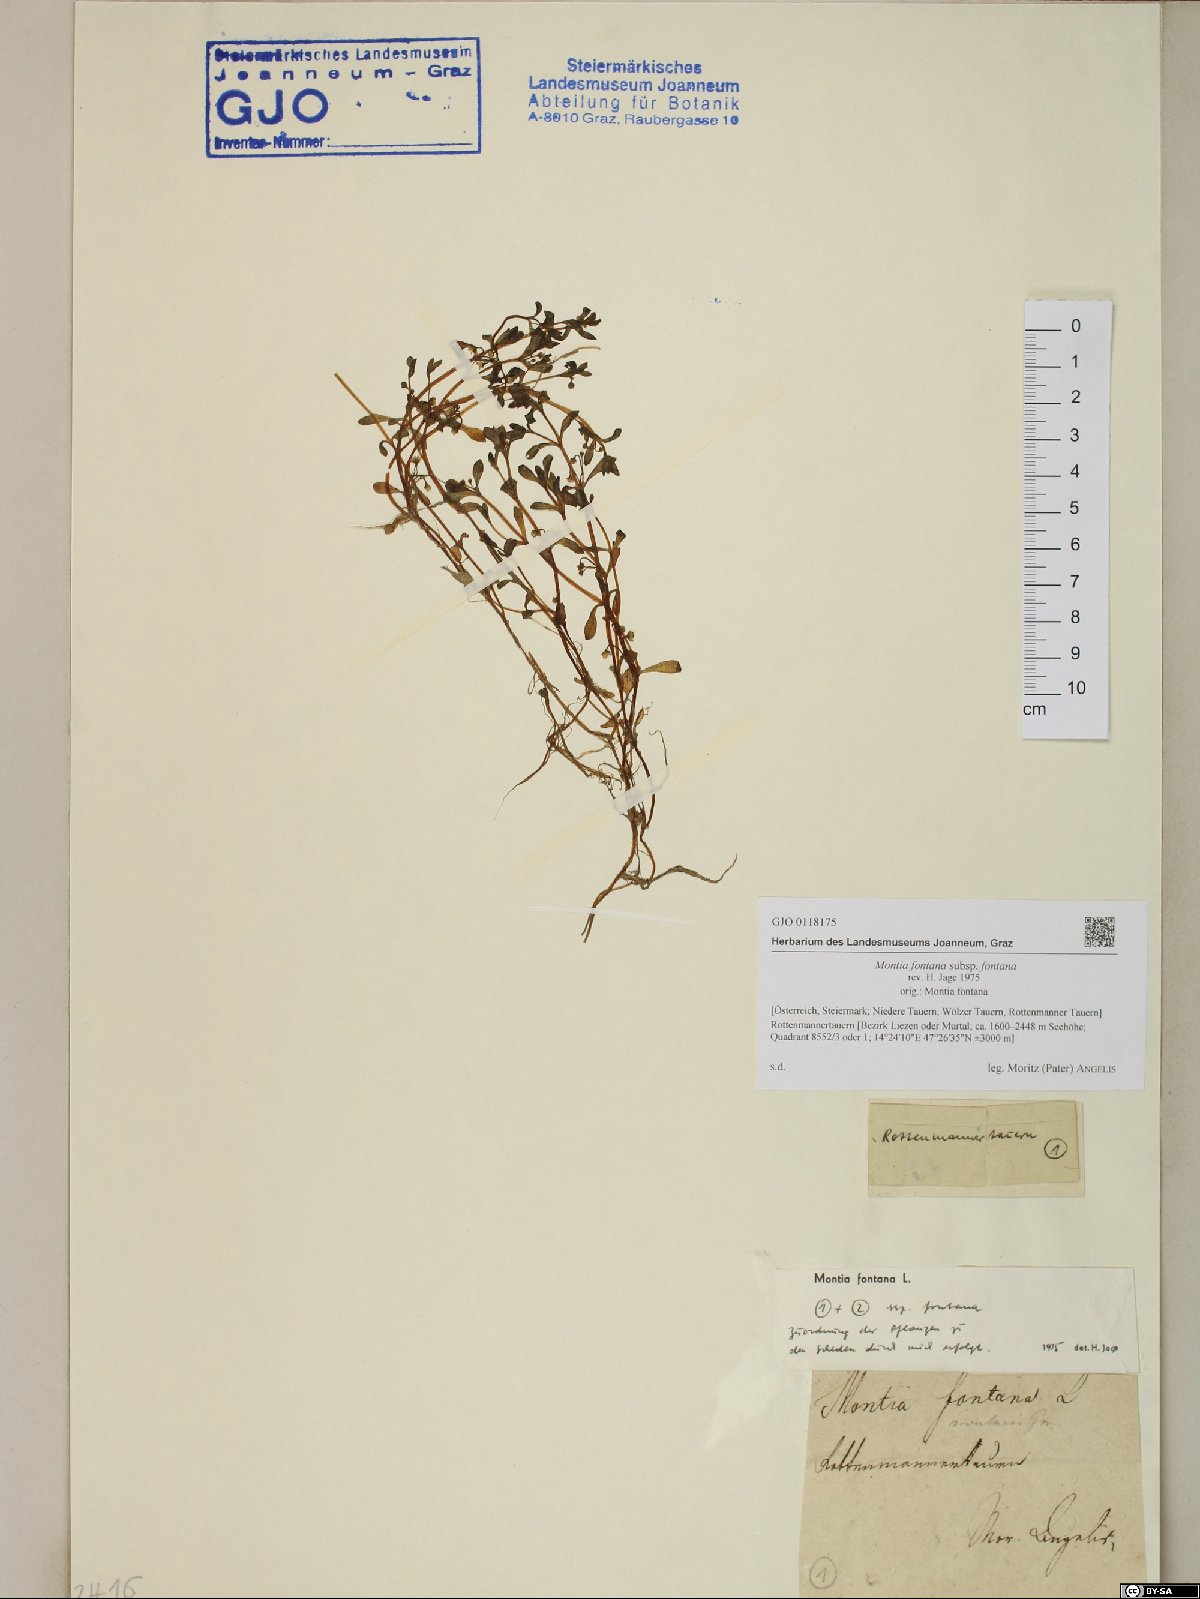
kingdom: Plantae
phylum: Tracheophyta
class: Magnoliopsida
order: Caryophyllales
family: Montiaceae
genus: Montia
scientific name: Montia fontana
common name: Blinks
